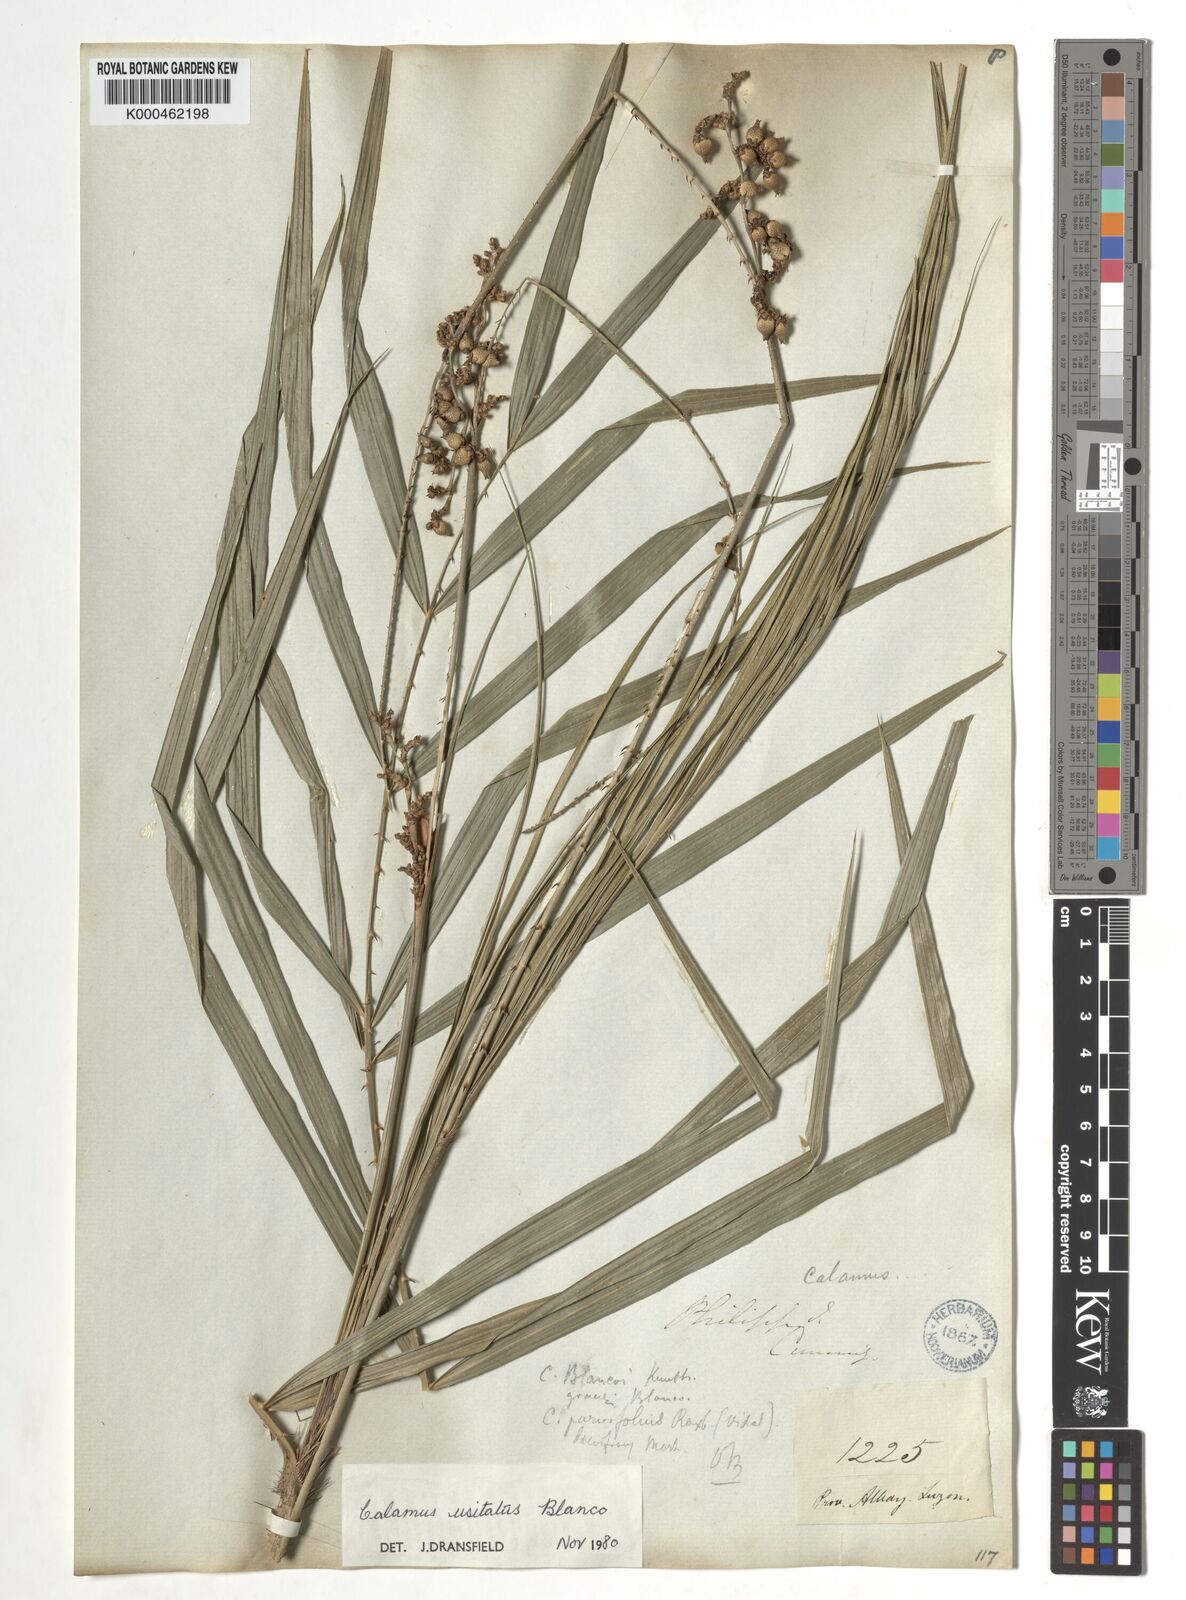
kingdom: Plantae
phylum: Tracheophyta
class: Liliopsida
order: Arecales
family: Arecaceae
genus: Calamus
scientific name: Calamus usitatus
